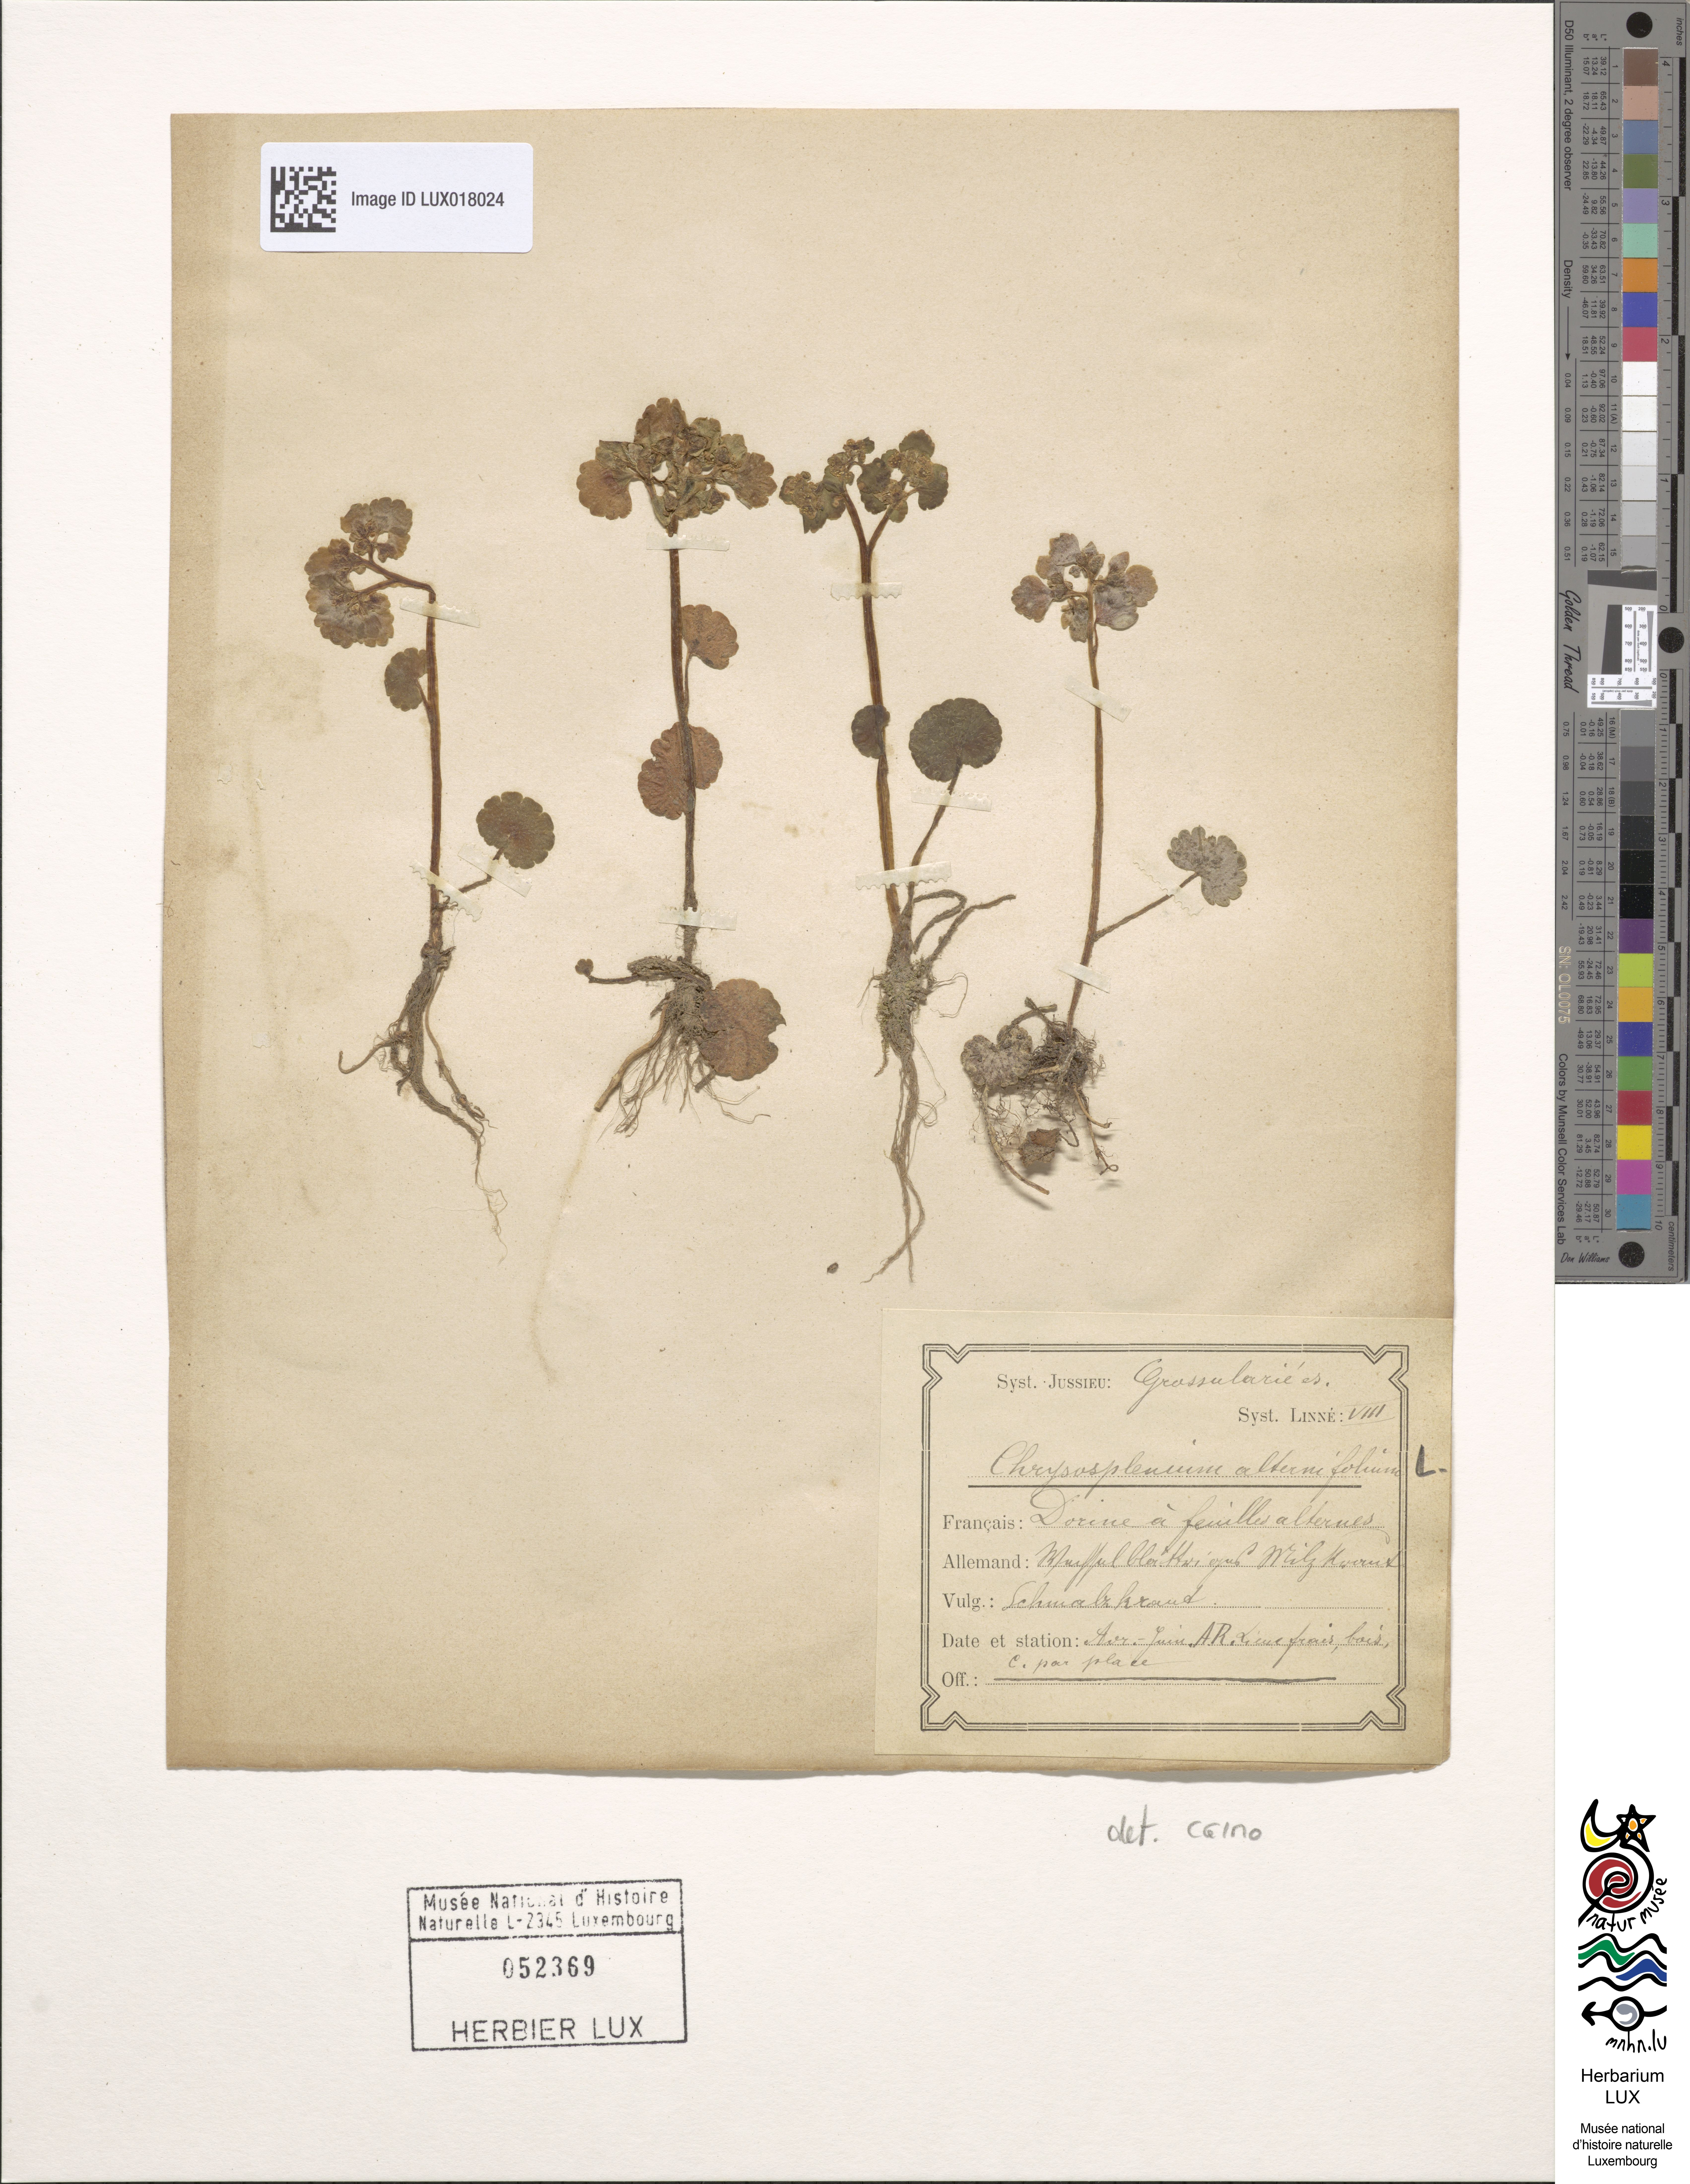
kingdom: Plantae
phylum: Tracheophyta
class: Magnoliopsida
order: Saxifragales
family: Saxifragaceae
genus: Chrysosplenium
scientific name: Chrysosplenium alternifolium
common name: Alternate-leaved golden-saxifrage
